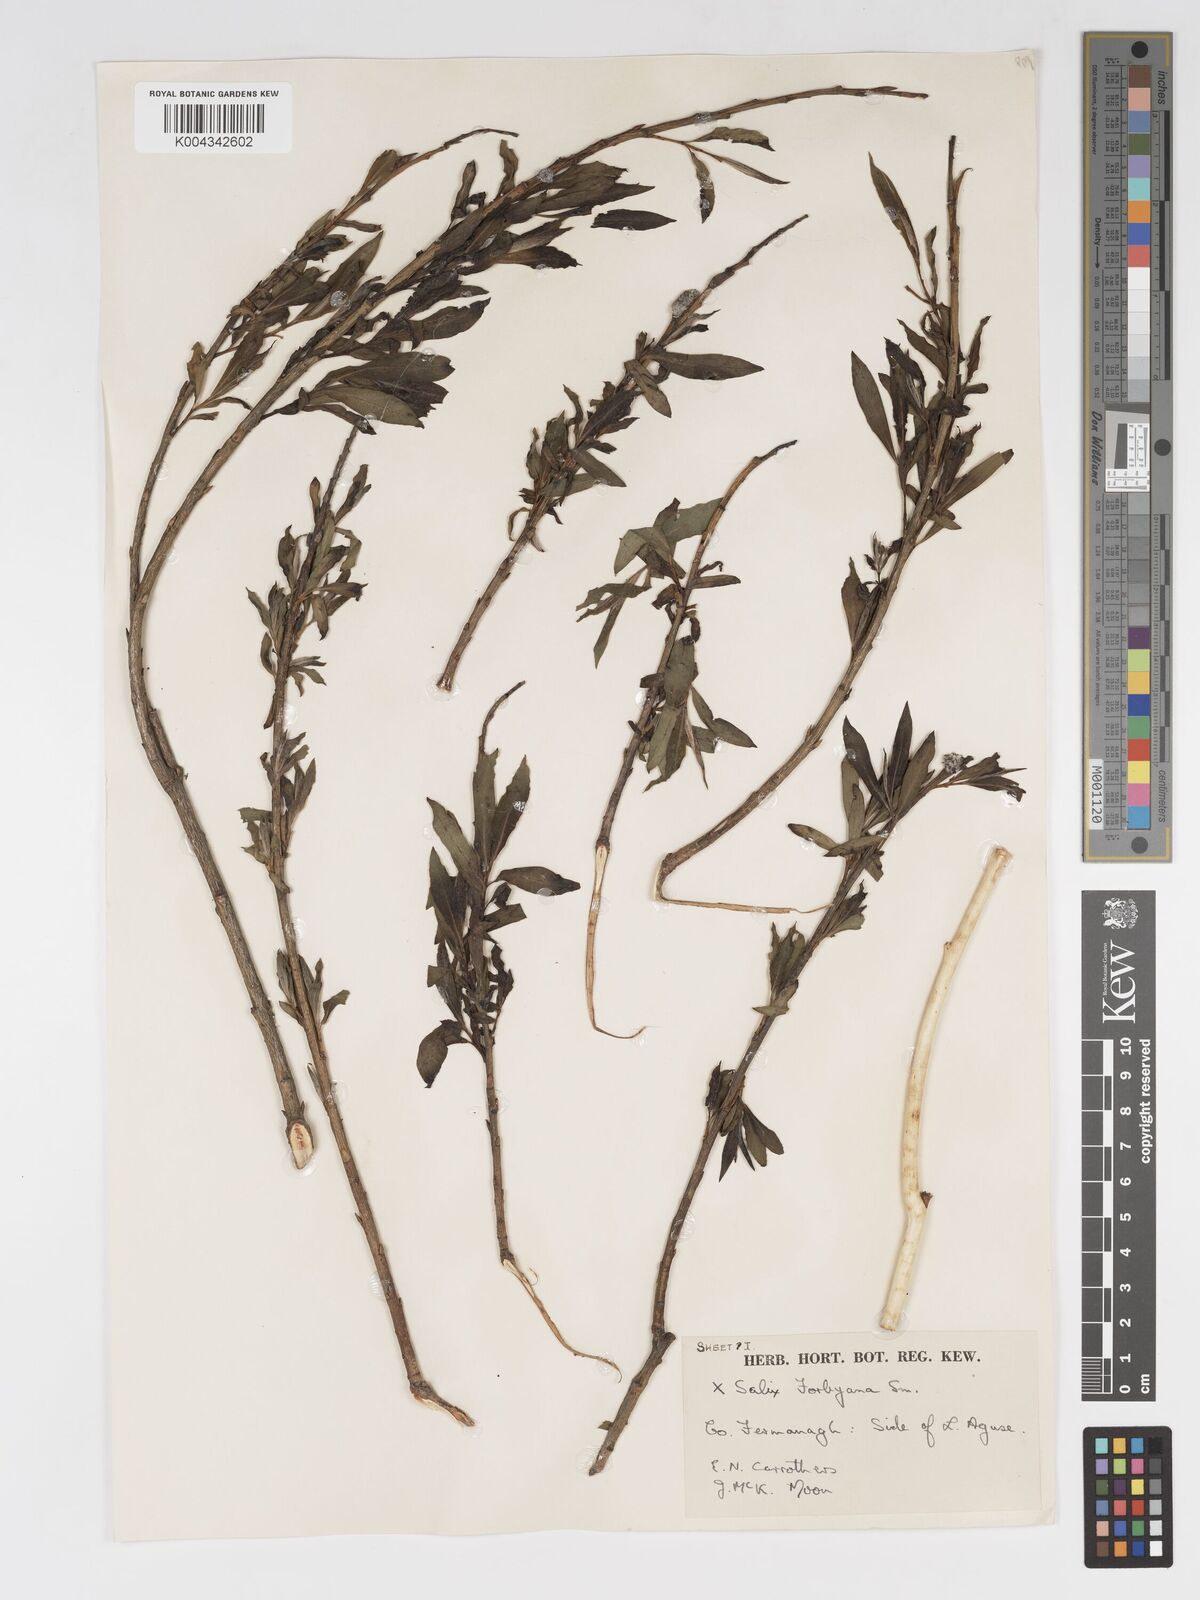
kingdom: Plantae
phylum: Tracheophyta
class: Magnoliopsida
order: Malpighiales
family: Salicaceae
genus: Salix
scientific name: Salix cinerea
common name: Common sallow
